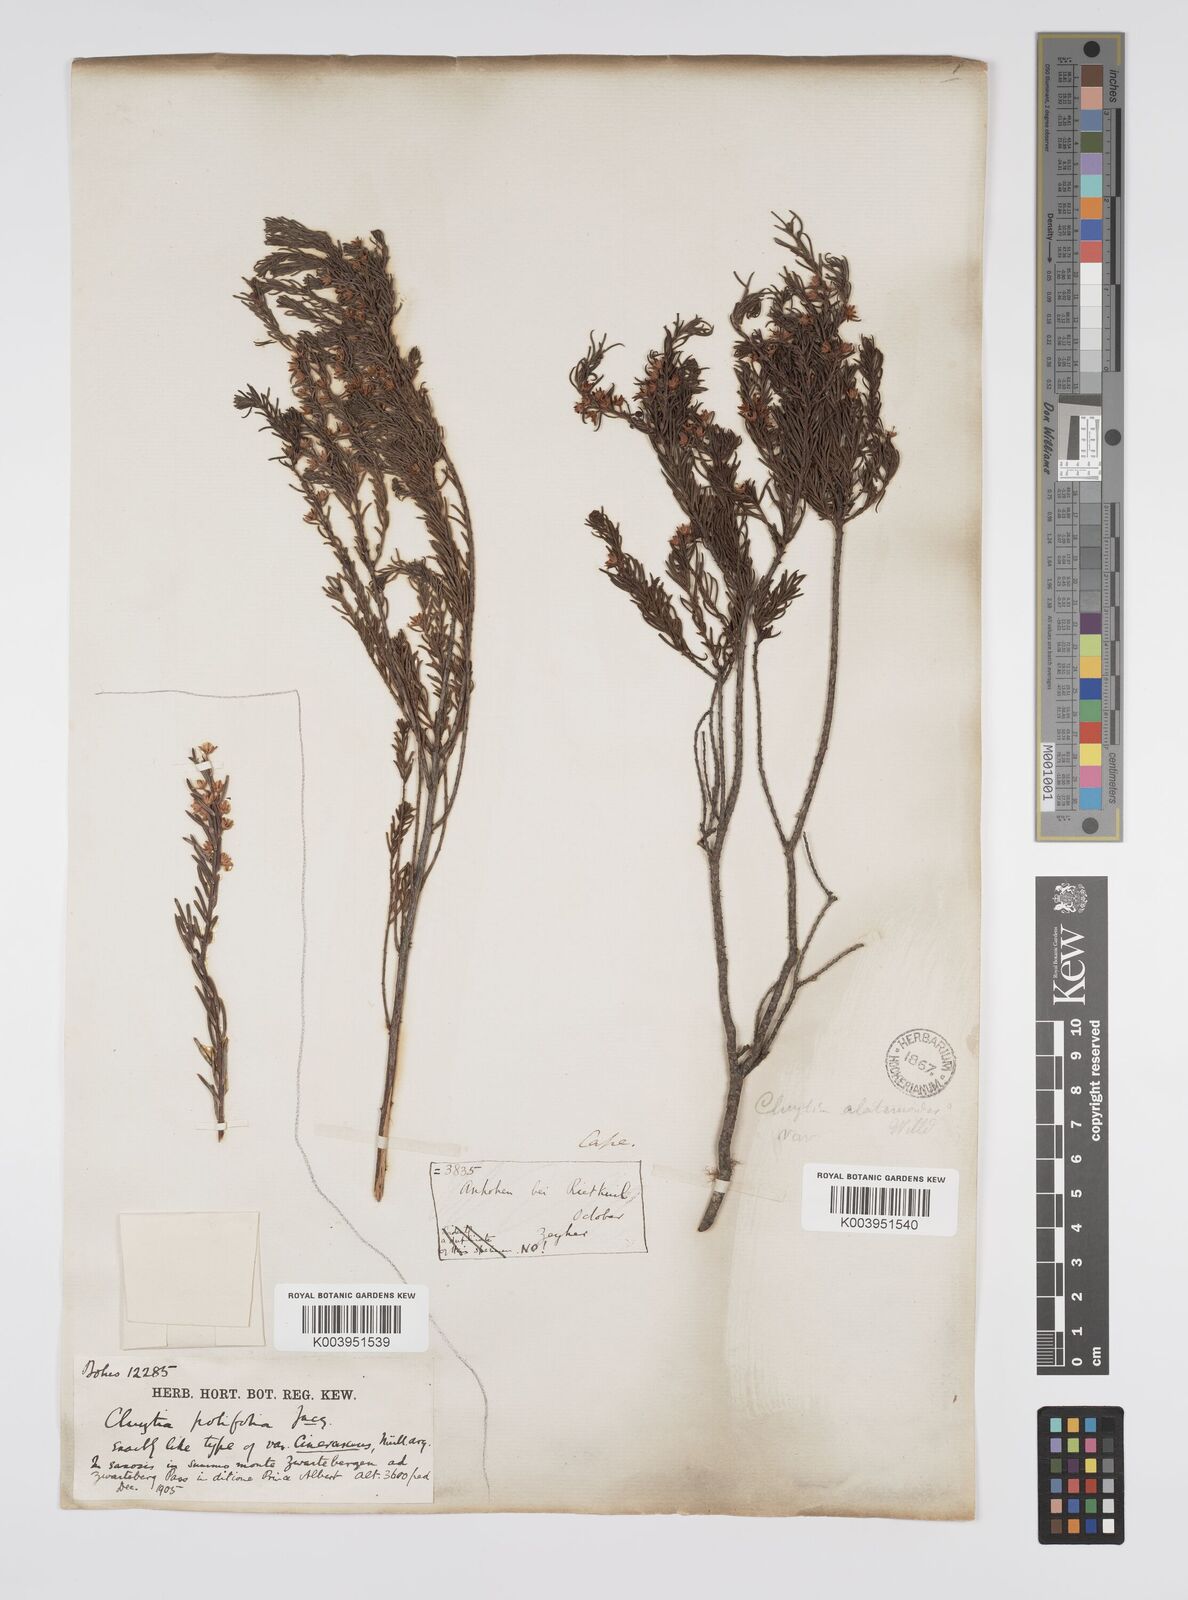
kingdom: Plantae
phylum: Tracheophyta
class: Magnoliopsida
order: Malpighiales
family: Peraceae
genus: Clutia
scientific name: Clutia
